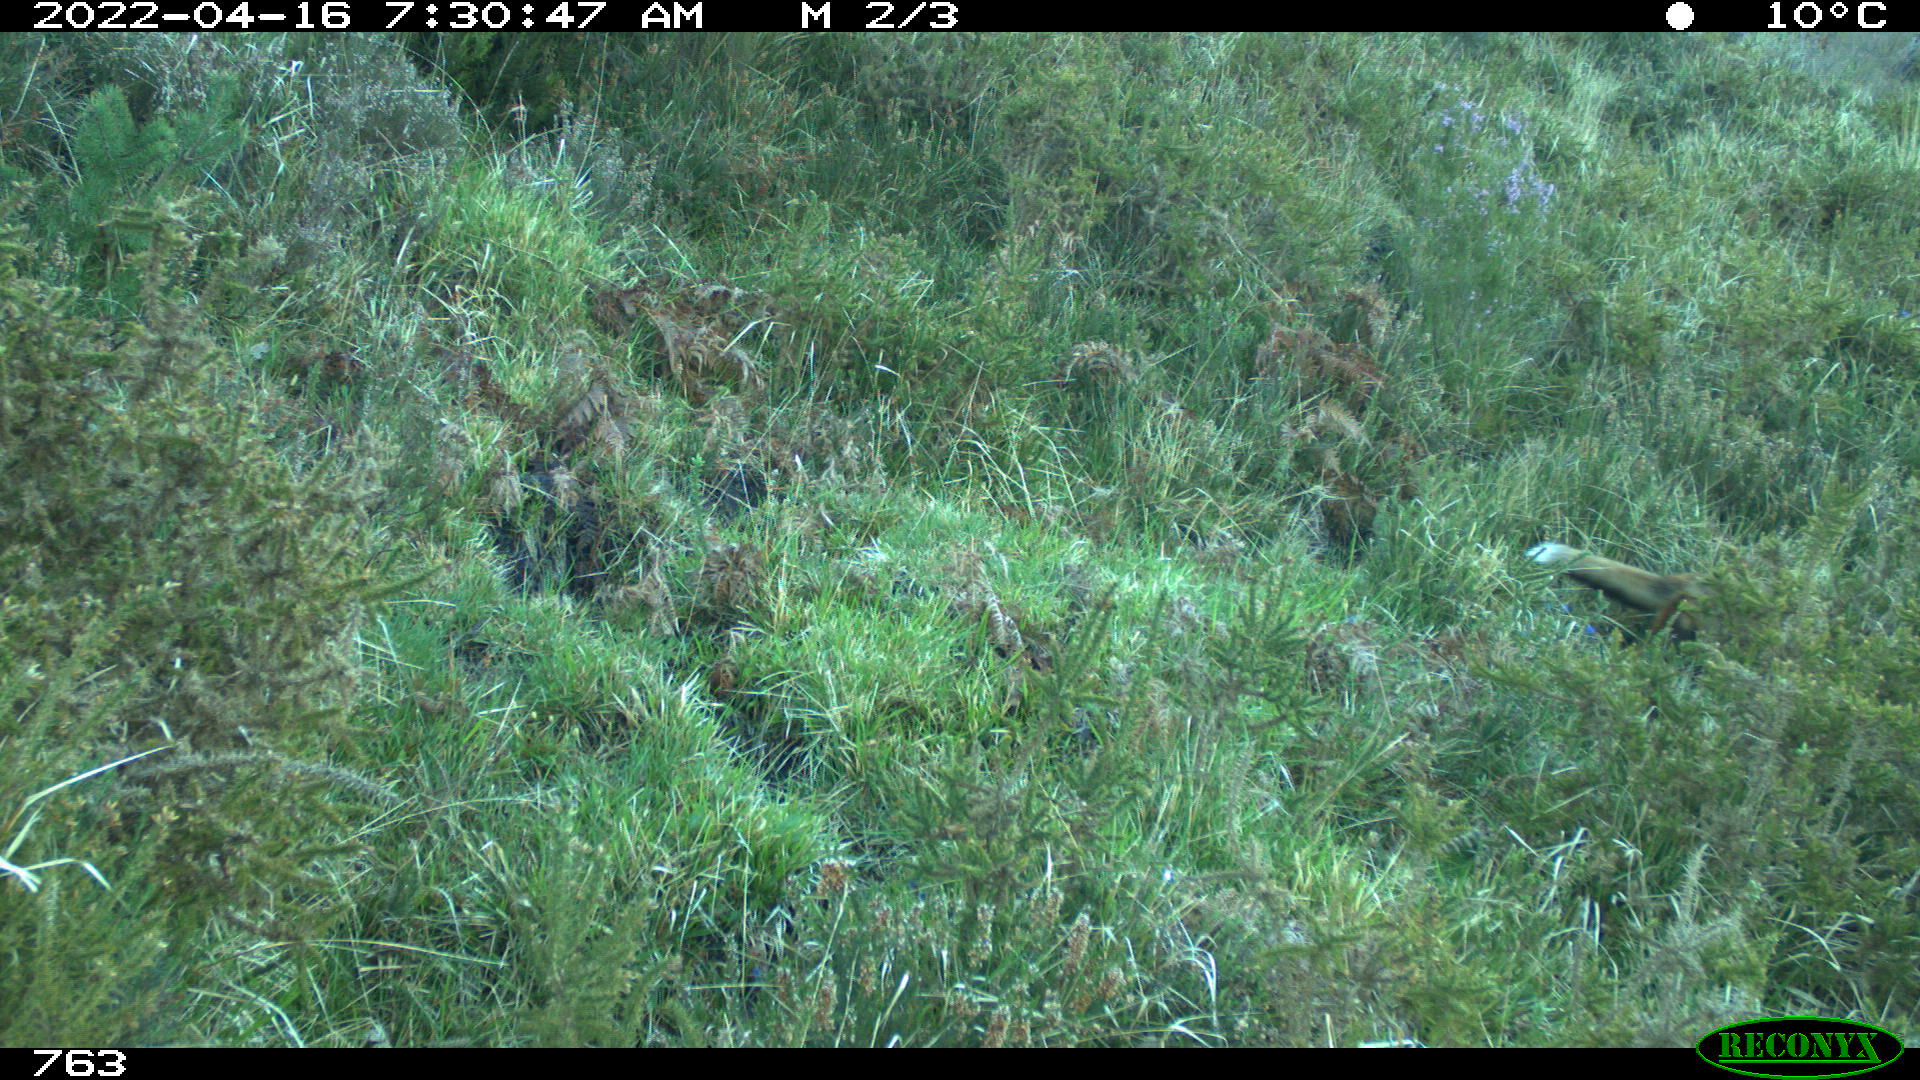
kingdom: Animalia
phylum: Chordata
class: Mammalia
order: Carnivora
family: Canidae
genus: Vulpes
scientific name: Vulpes vulpes
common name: Red fox
